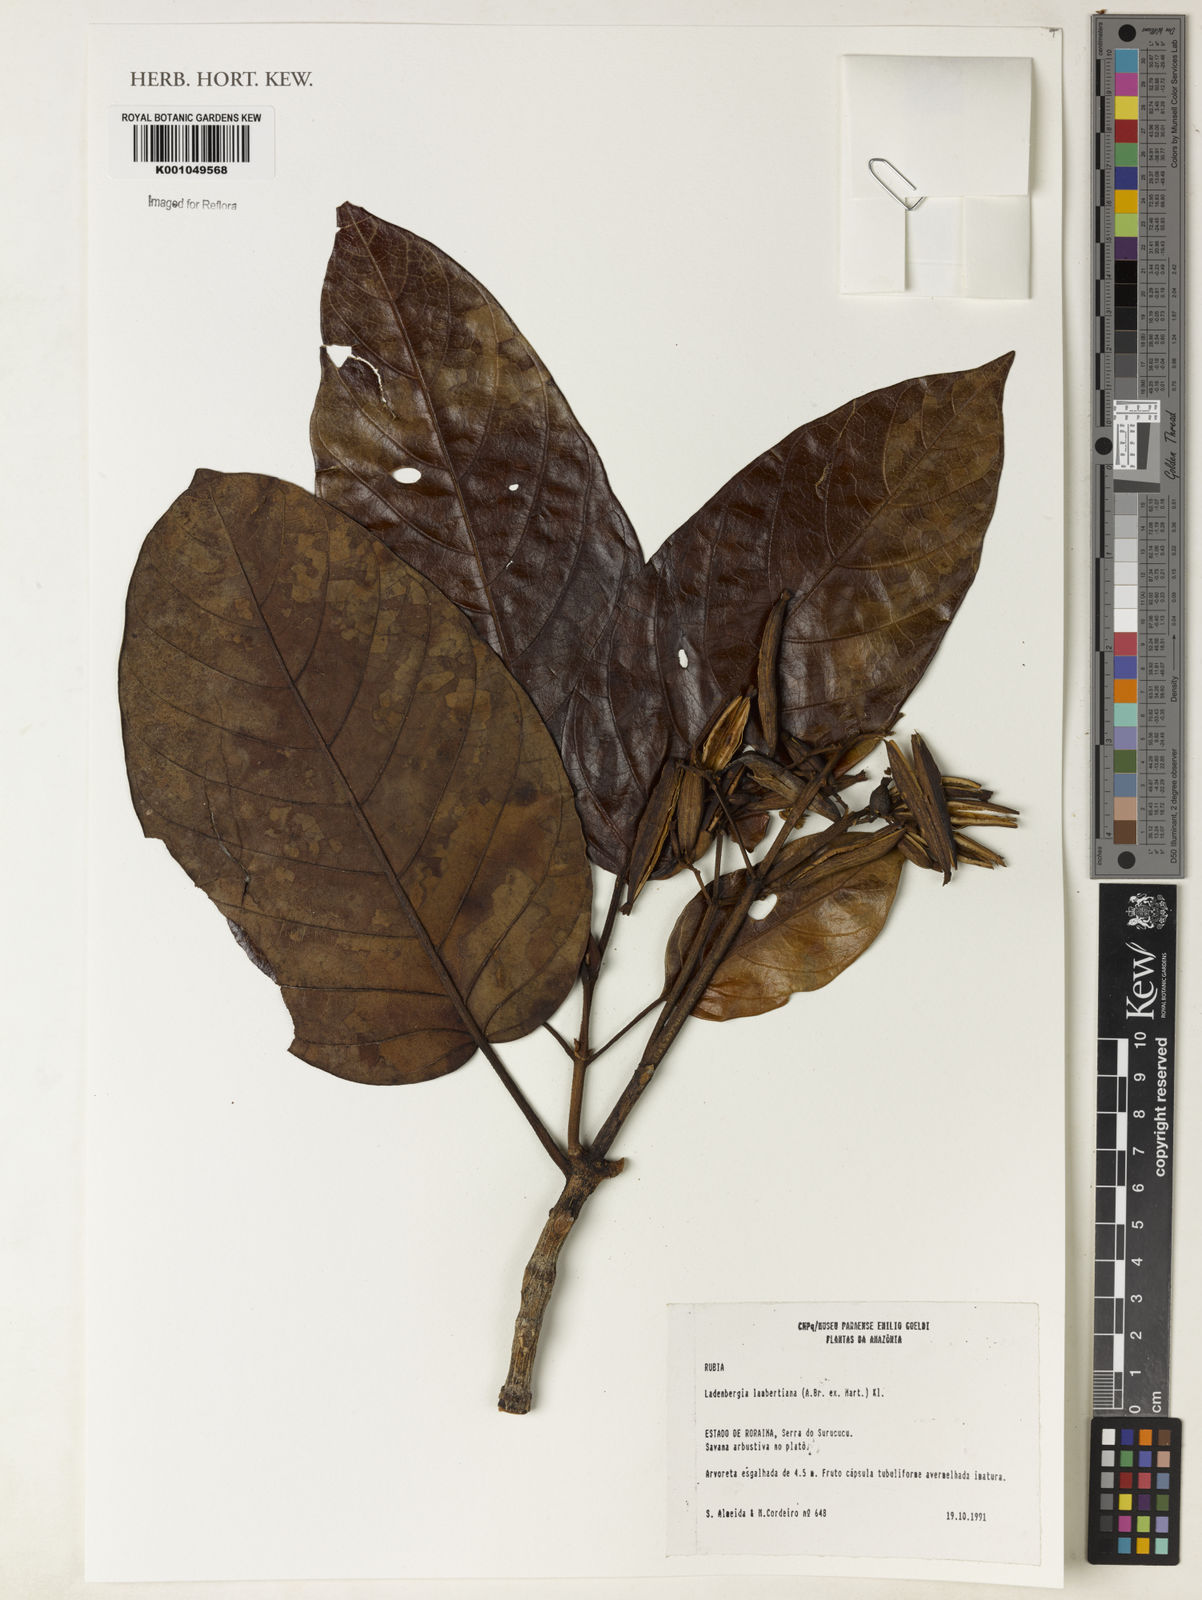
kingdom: Plantae
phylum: Tracheophyta
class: Magnoliopsida
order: Gentianales
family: Rubiaceae
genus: Ladenbergia
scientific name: Ladenbergia lambertiana
